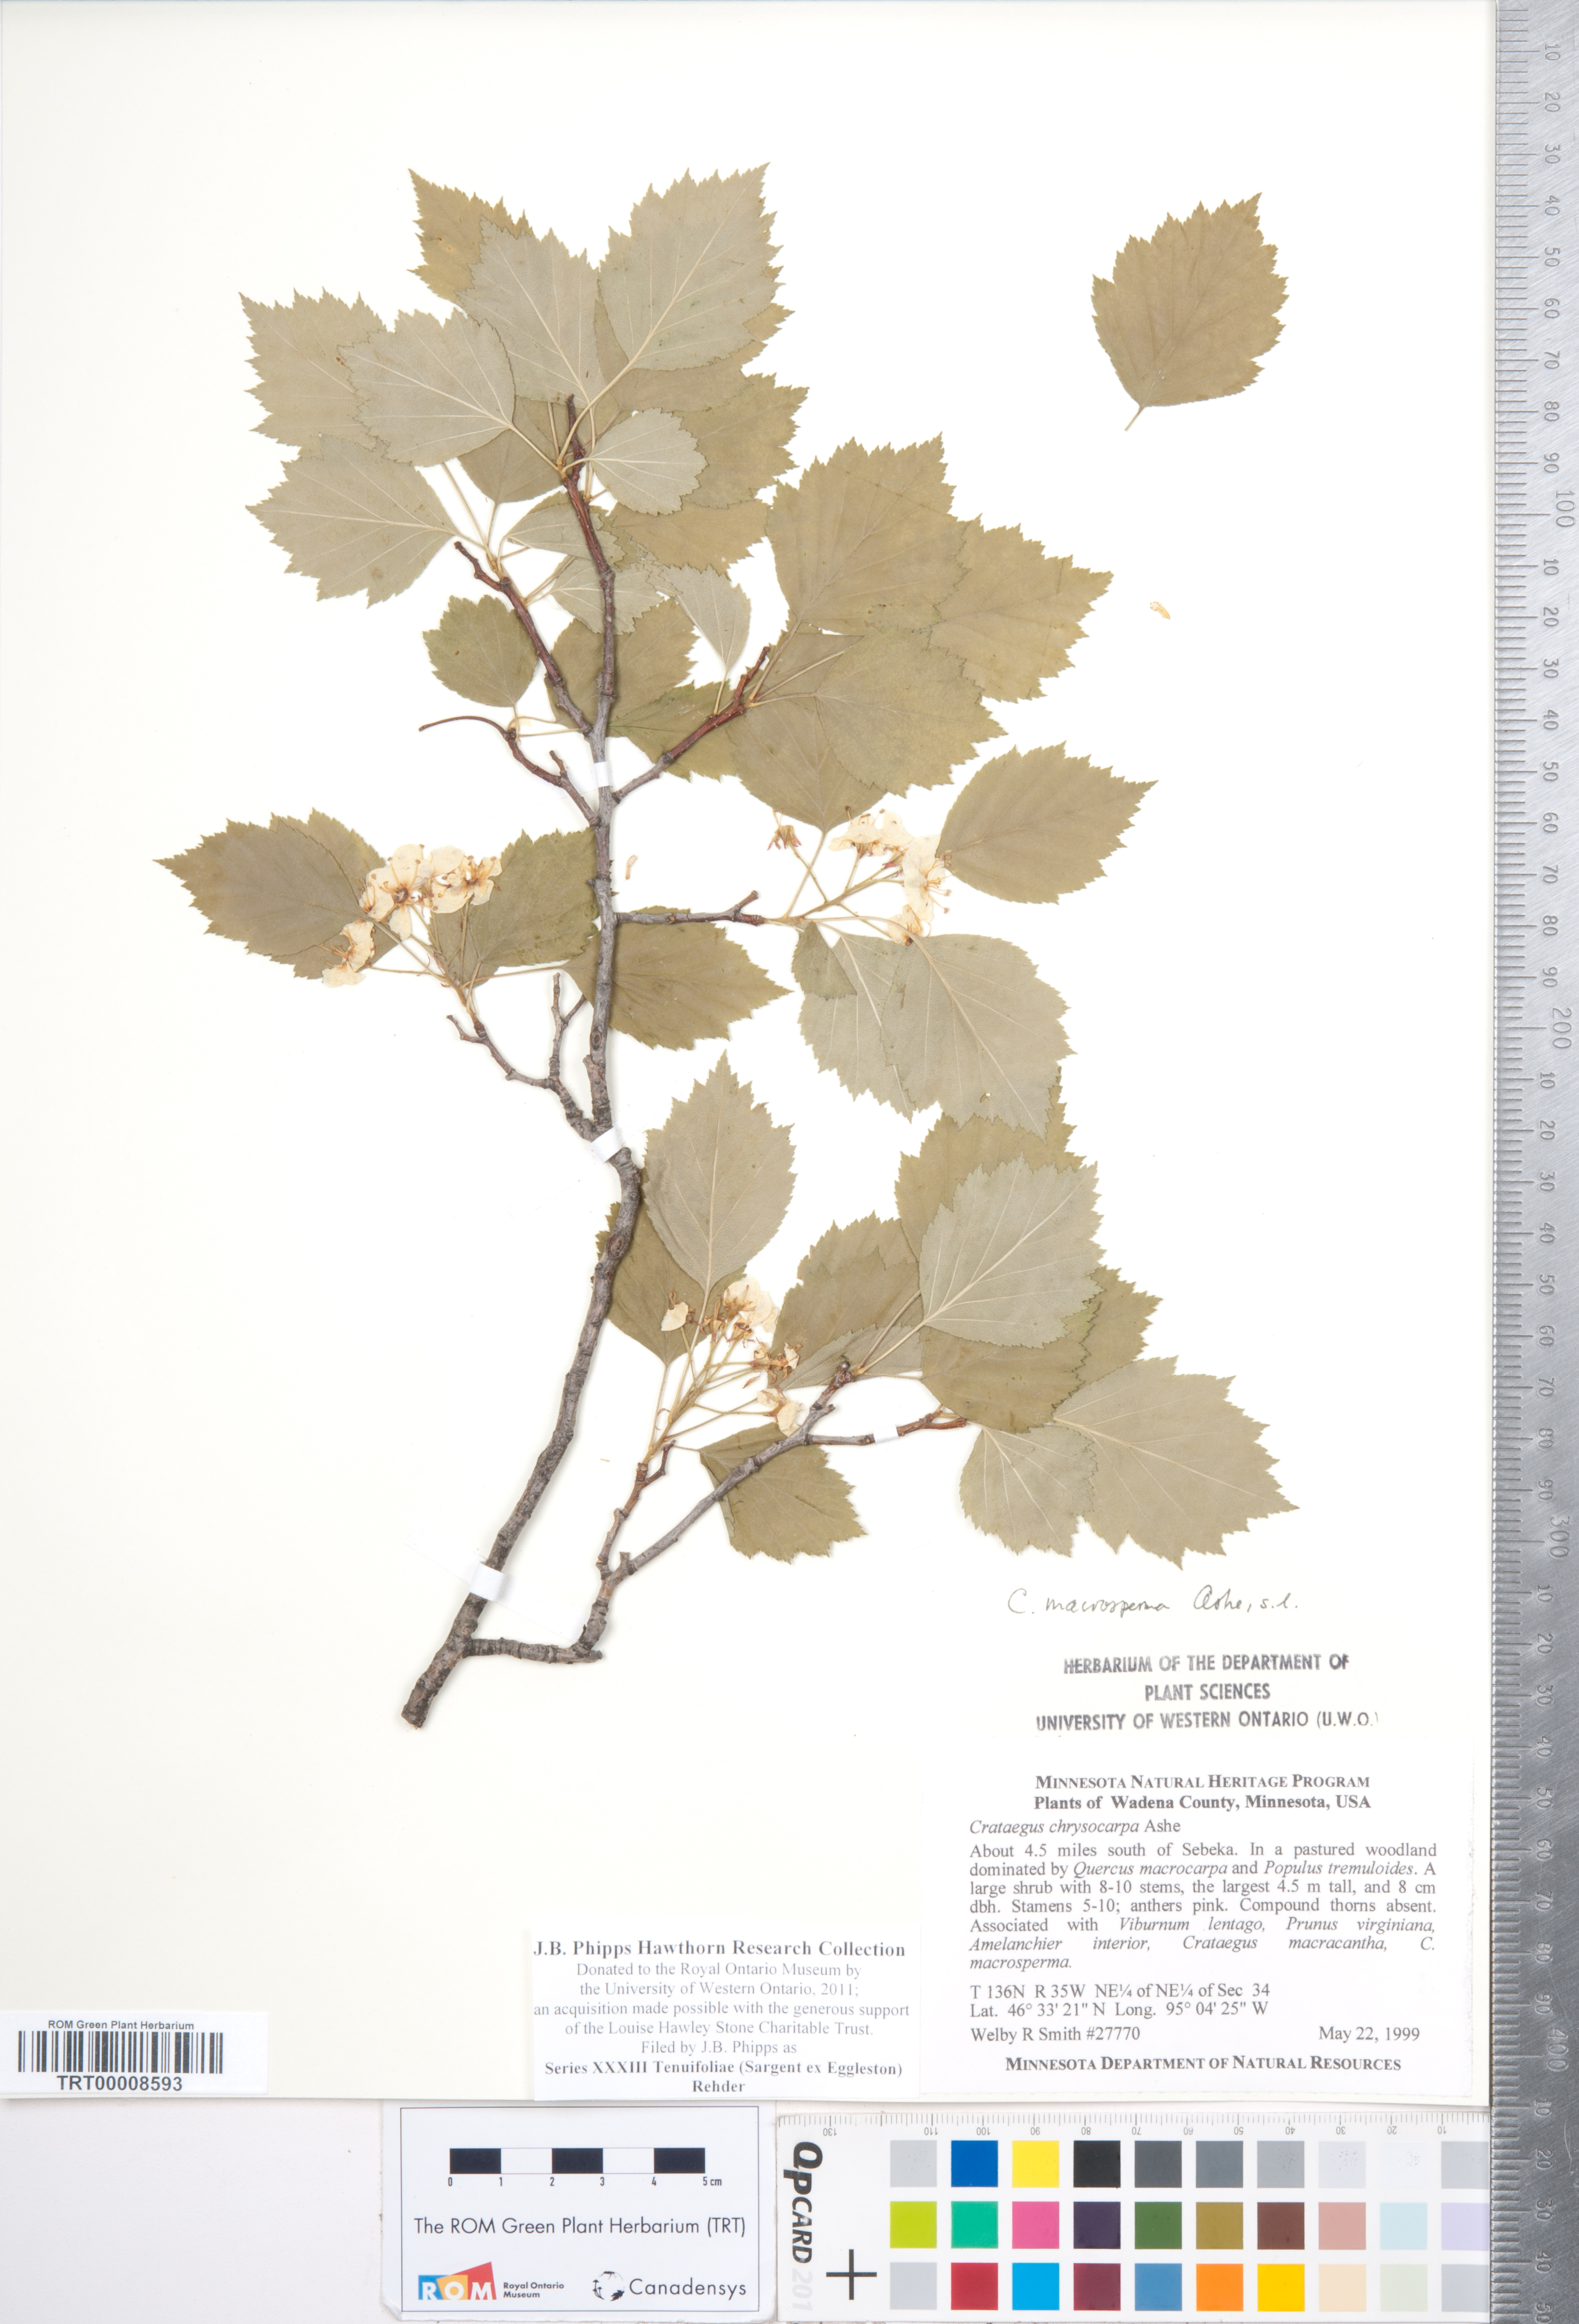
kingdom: Plantae
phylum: Tracheophyta
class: Magnoliopsida
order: Rosales
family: Rosaceae
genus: Crataegus
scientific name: Crataegus
